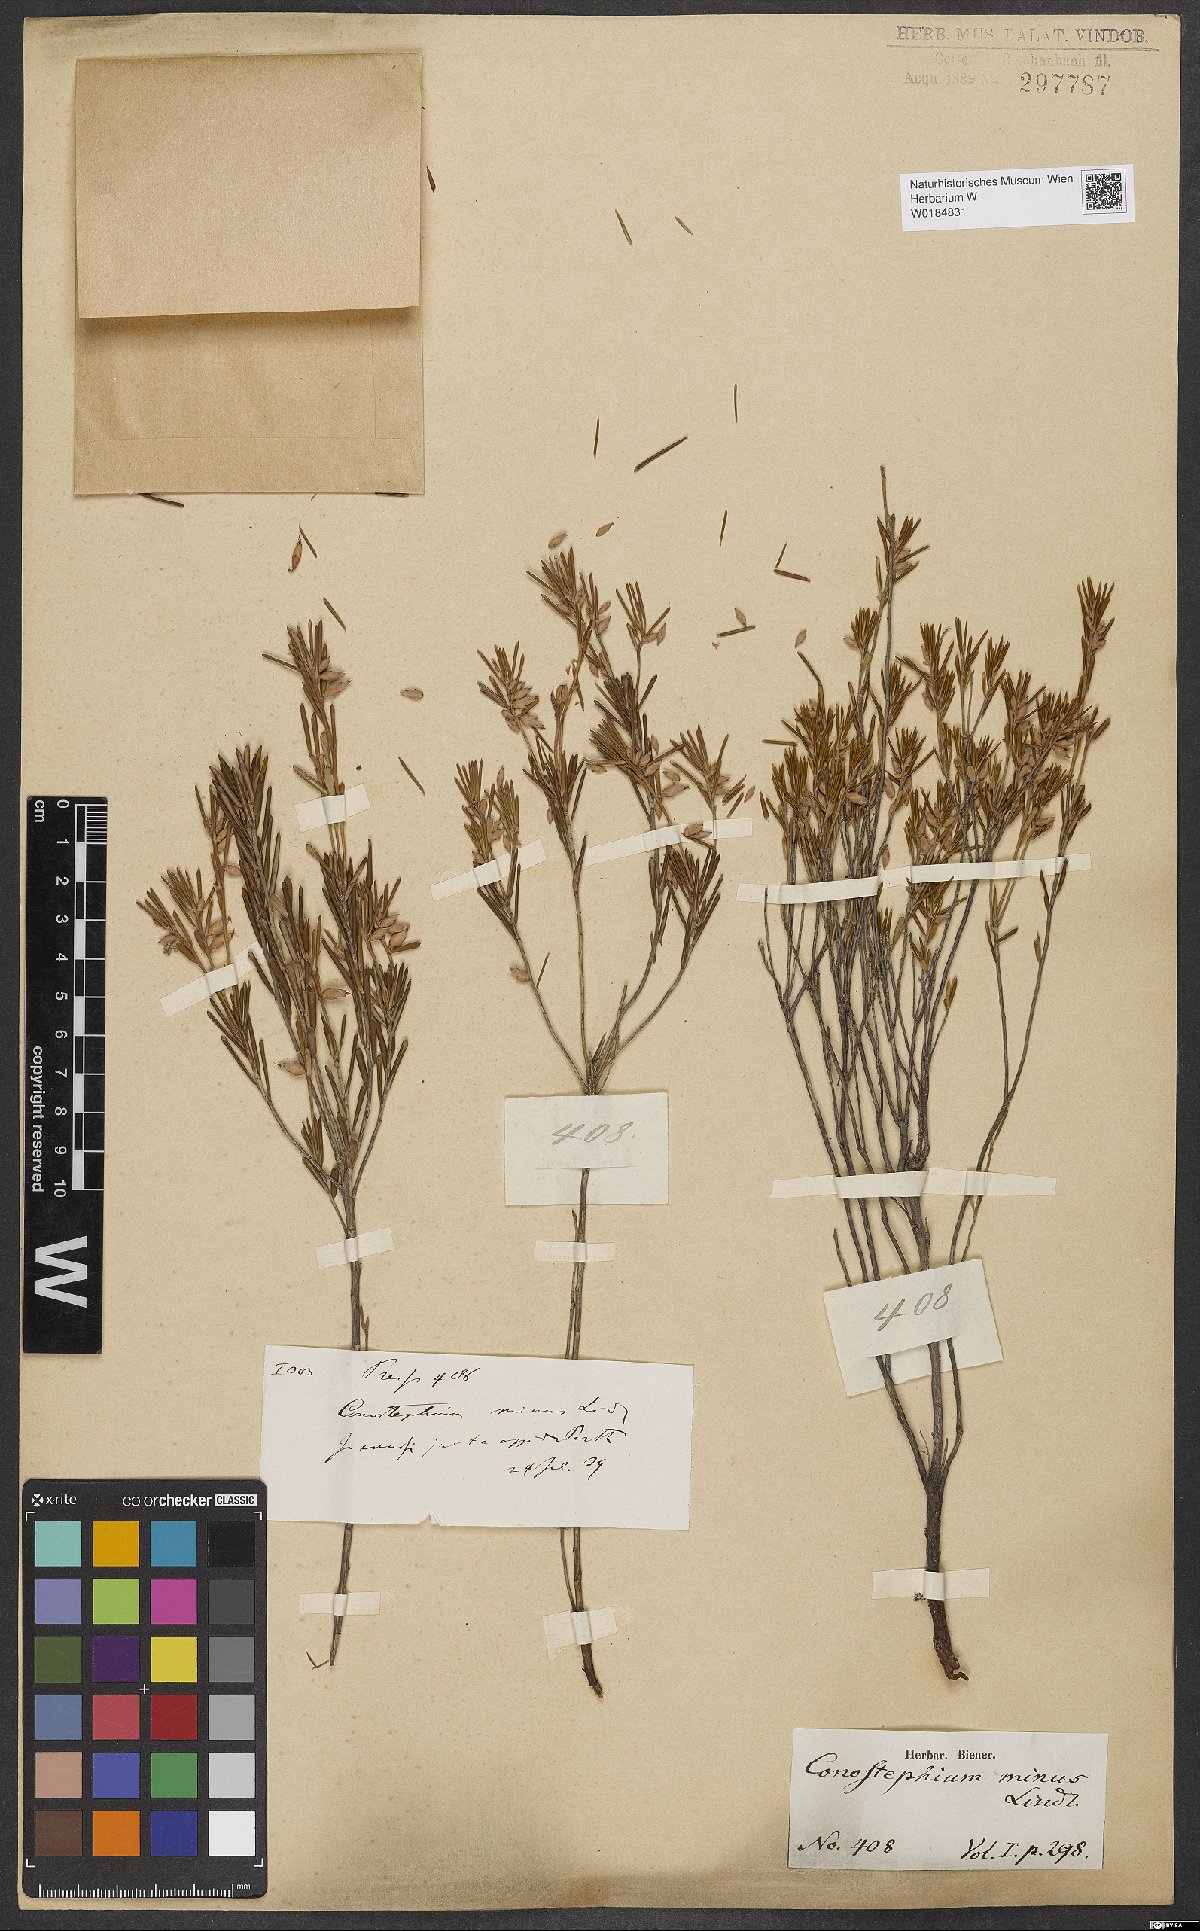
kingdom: Plantae
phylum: Tracheophyta
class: Magnoliopsida
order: Ericales
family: Ericaceae
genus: Conostephium
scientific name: Conostephium minus
